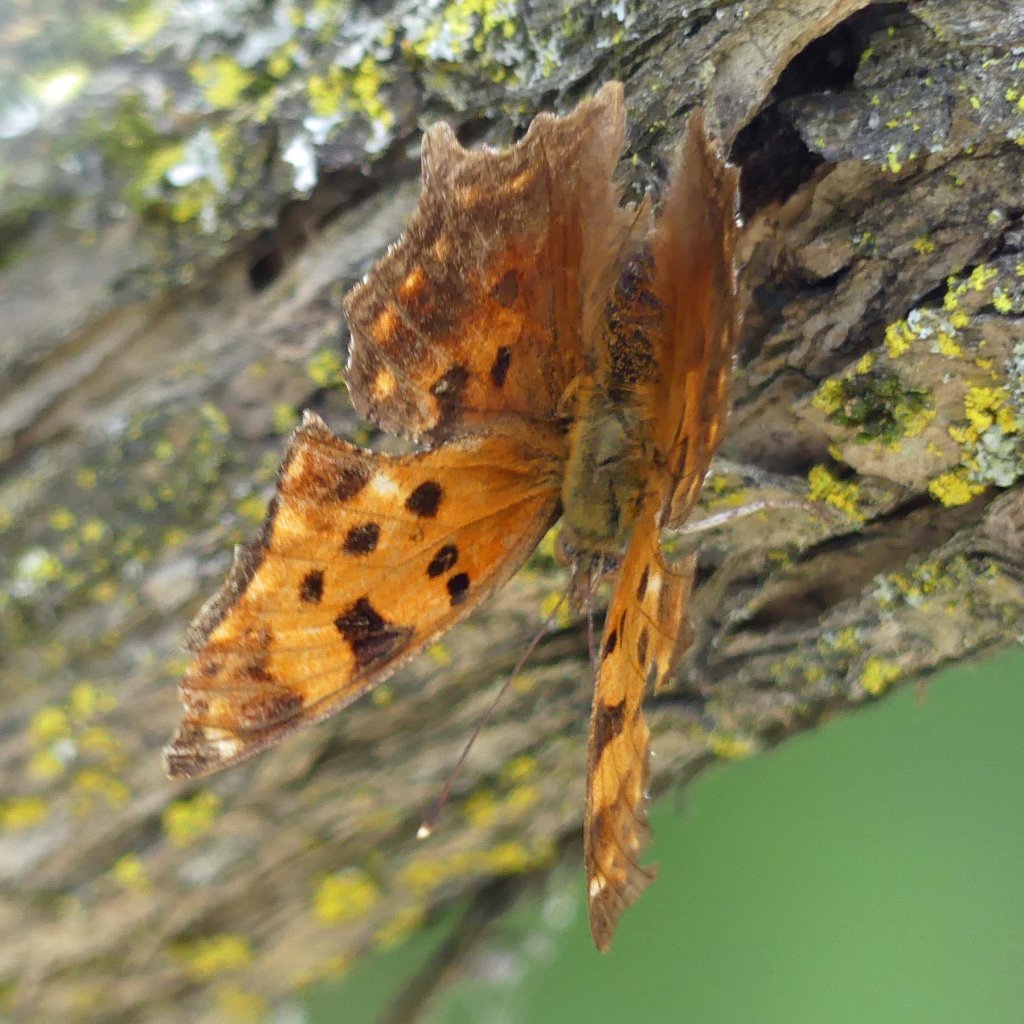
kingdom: Animalia
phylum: Arthropoda
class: Insecta
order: Lepidoptera
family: Nymphalidae
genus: Polygonia
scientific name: Polygonia comma
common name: Eastern Comma
